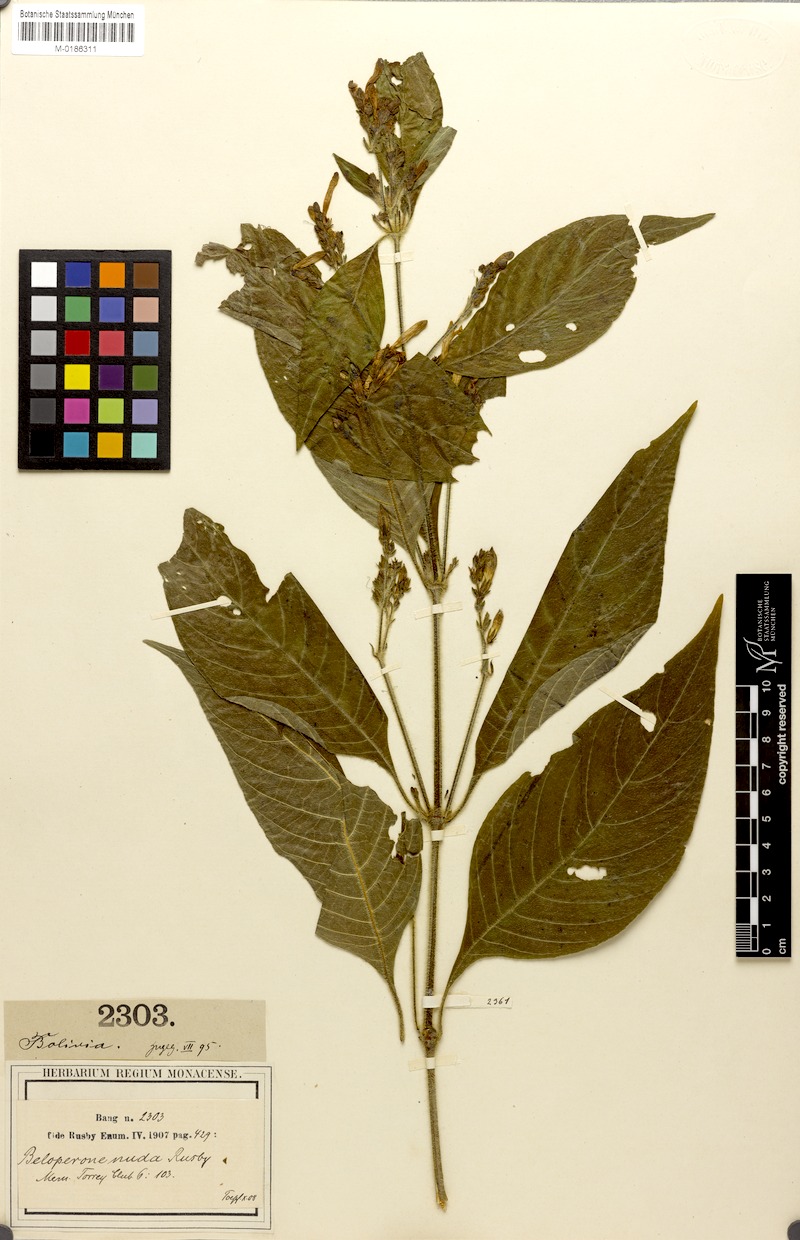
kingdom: Plantae
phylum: Tracheophyta
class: Magnoliopsida
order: Lamiales
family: Acanthaceae
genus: Justicia
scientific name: Justicia boliviensis
